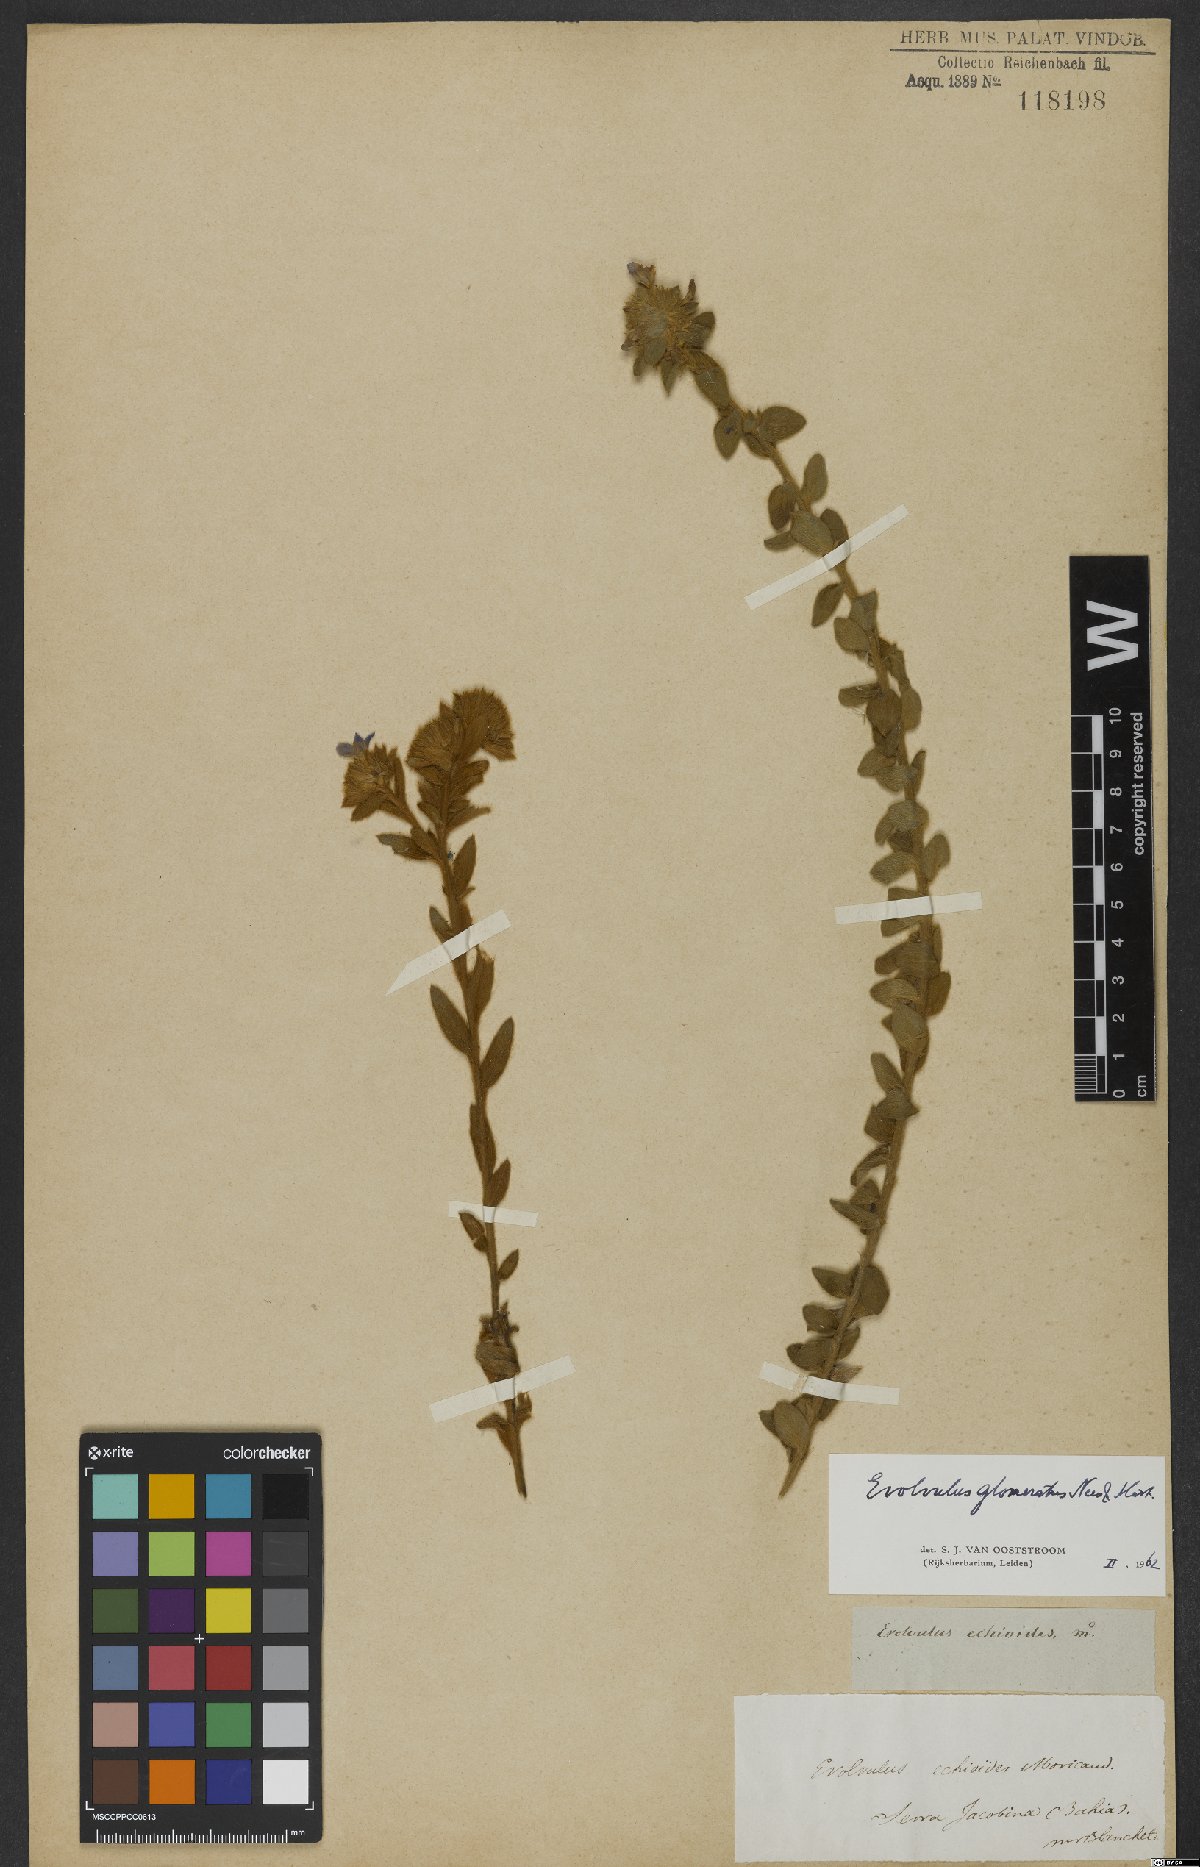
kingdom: Plantae
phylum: Tracheophyta
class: Magnoliopsida
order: Solanales
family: Convolvulaceae
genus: Evolvulus
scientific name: Evolvulus echioides
